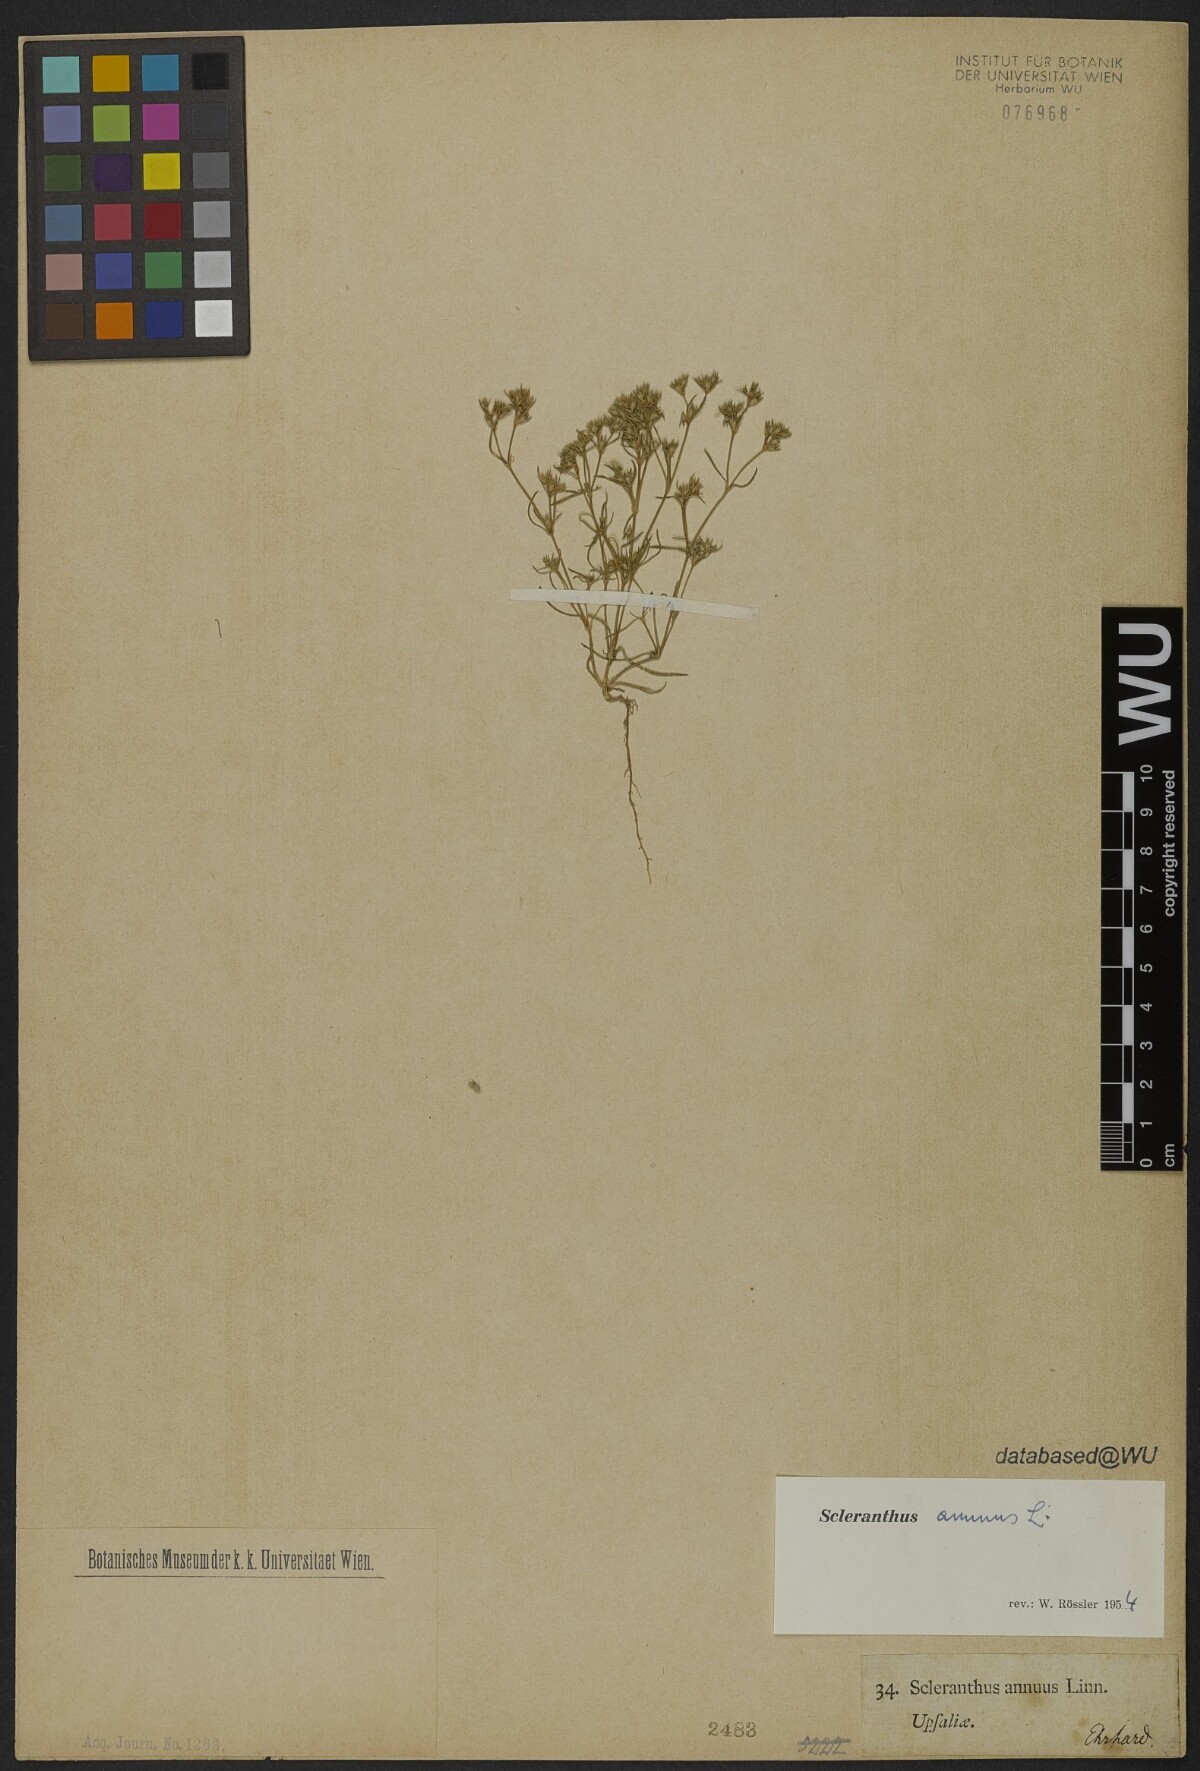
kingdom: Plantae
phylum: Tracheophyta
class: Magnoliopsida
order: Caryophyllales
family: Caryophyllaceae
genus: Scleranthus
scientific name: Scleranthus annuus
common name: Annual knawel
